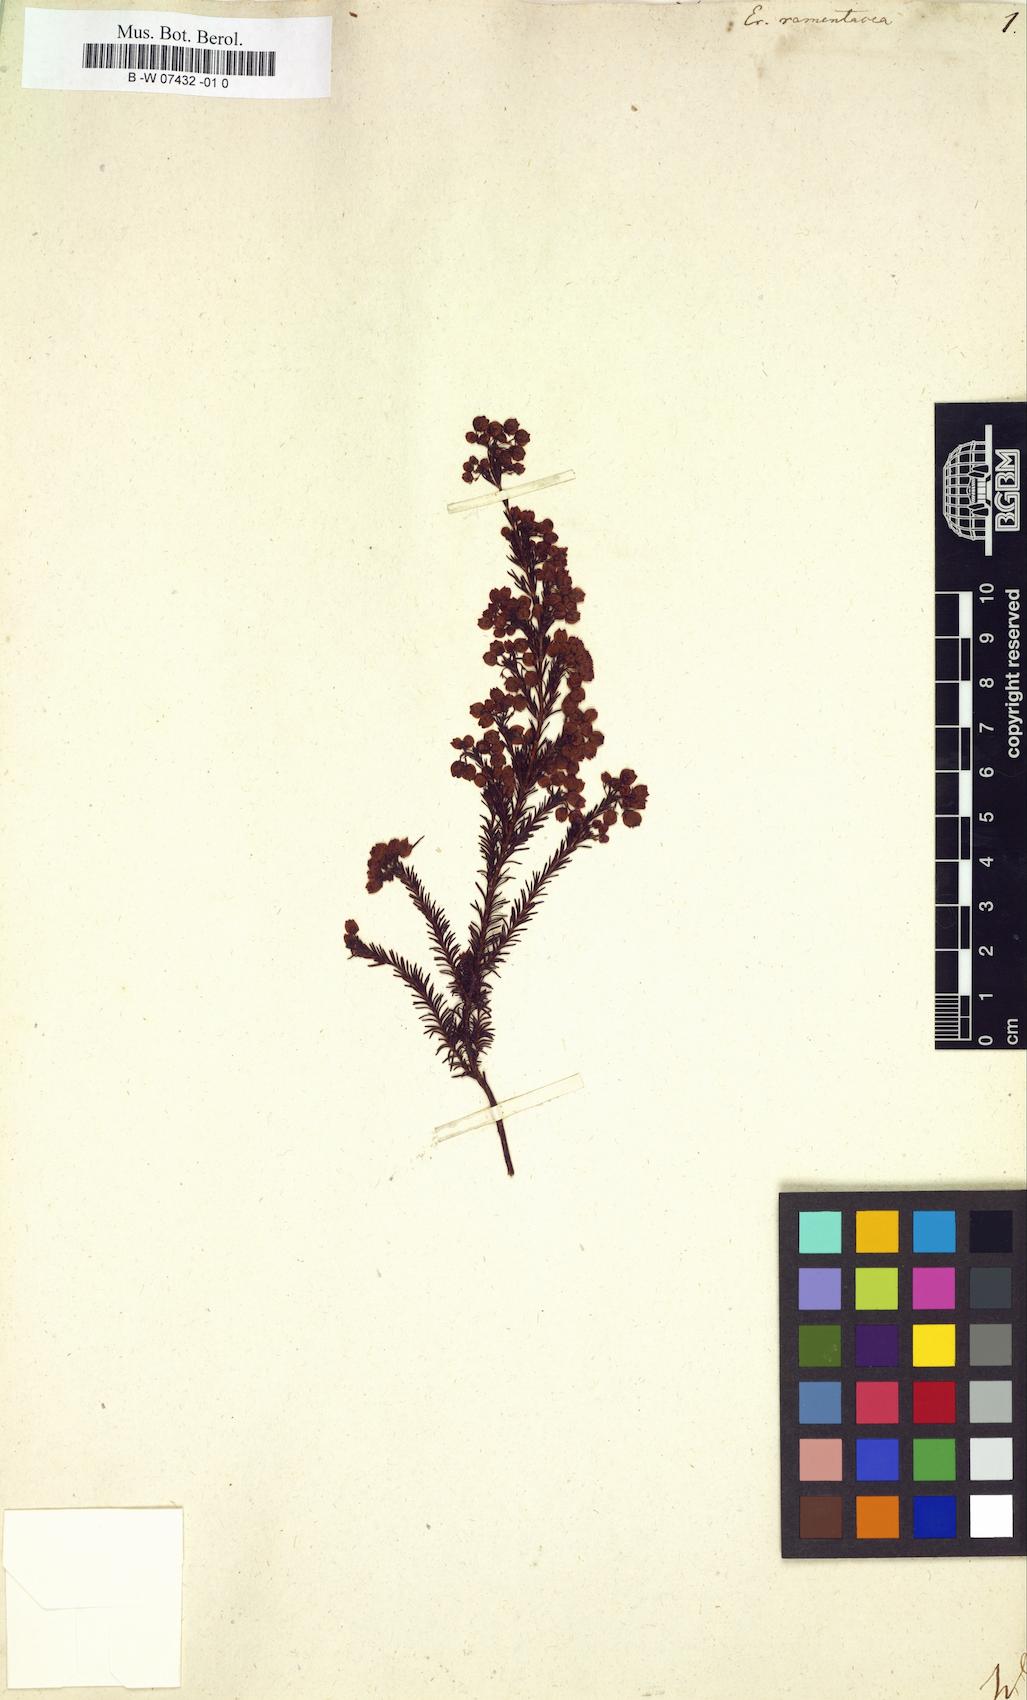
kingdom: Plantae
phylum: Tracheophyta
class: Magnoliopsida
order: Ericales
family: Ericaceae
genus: Erica
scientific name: Erica multumbellifera
